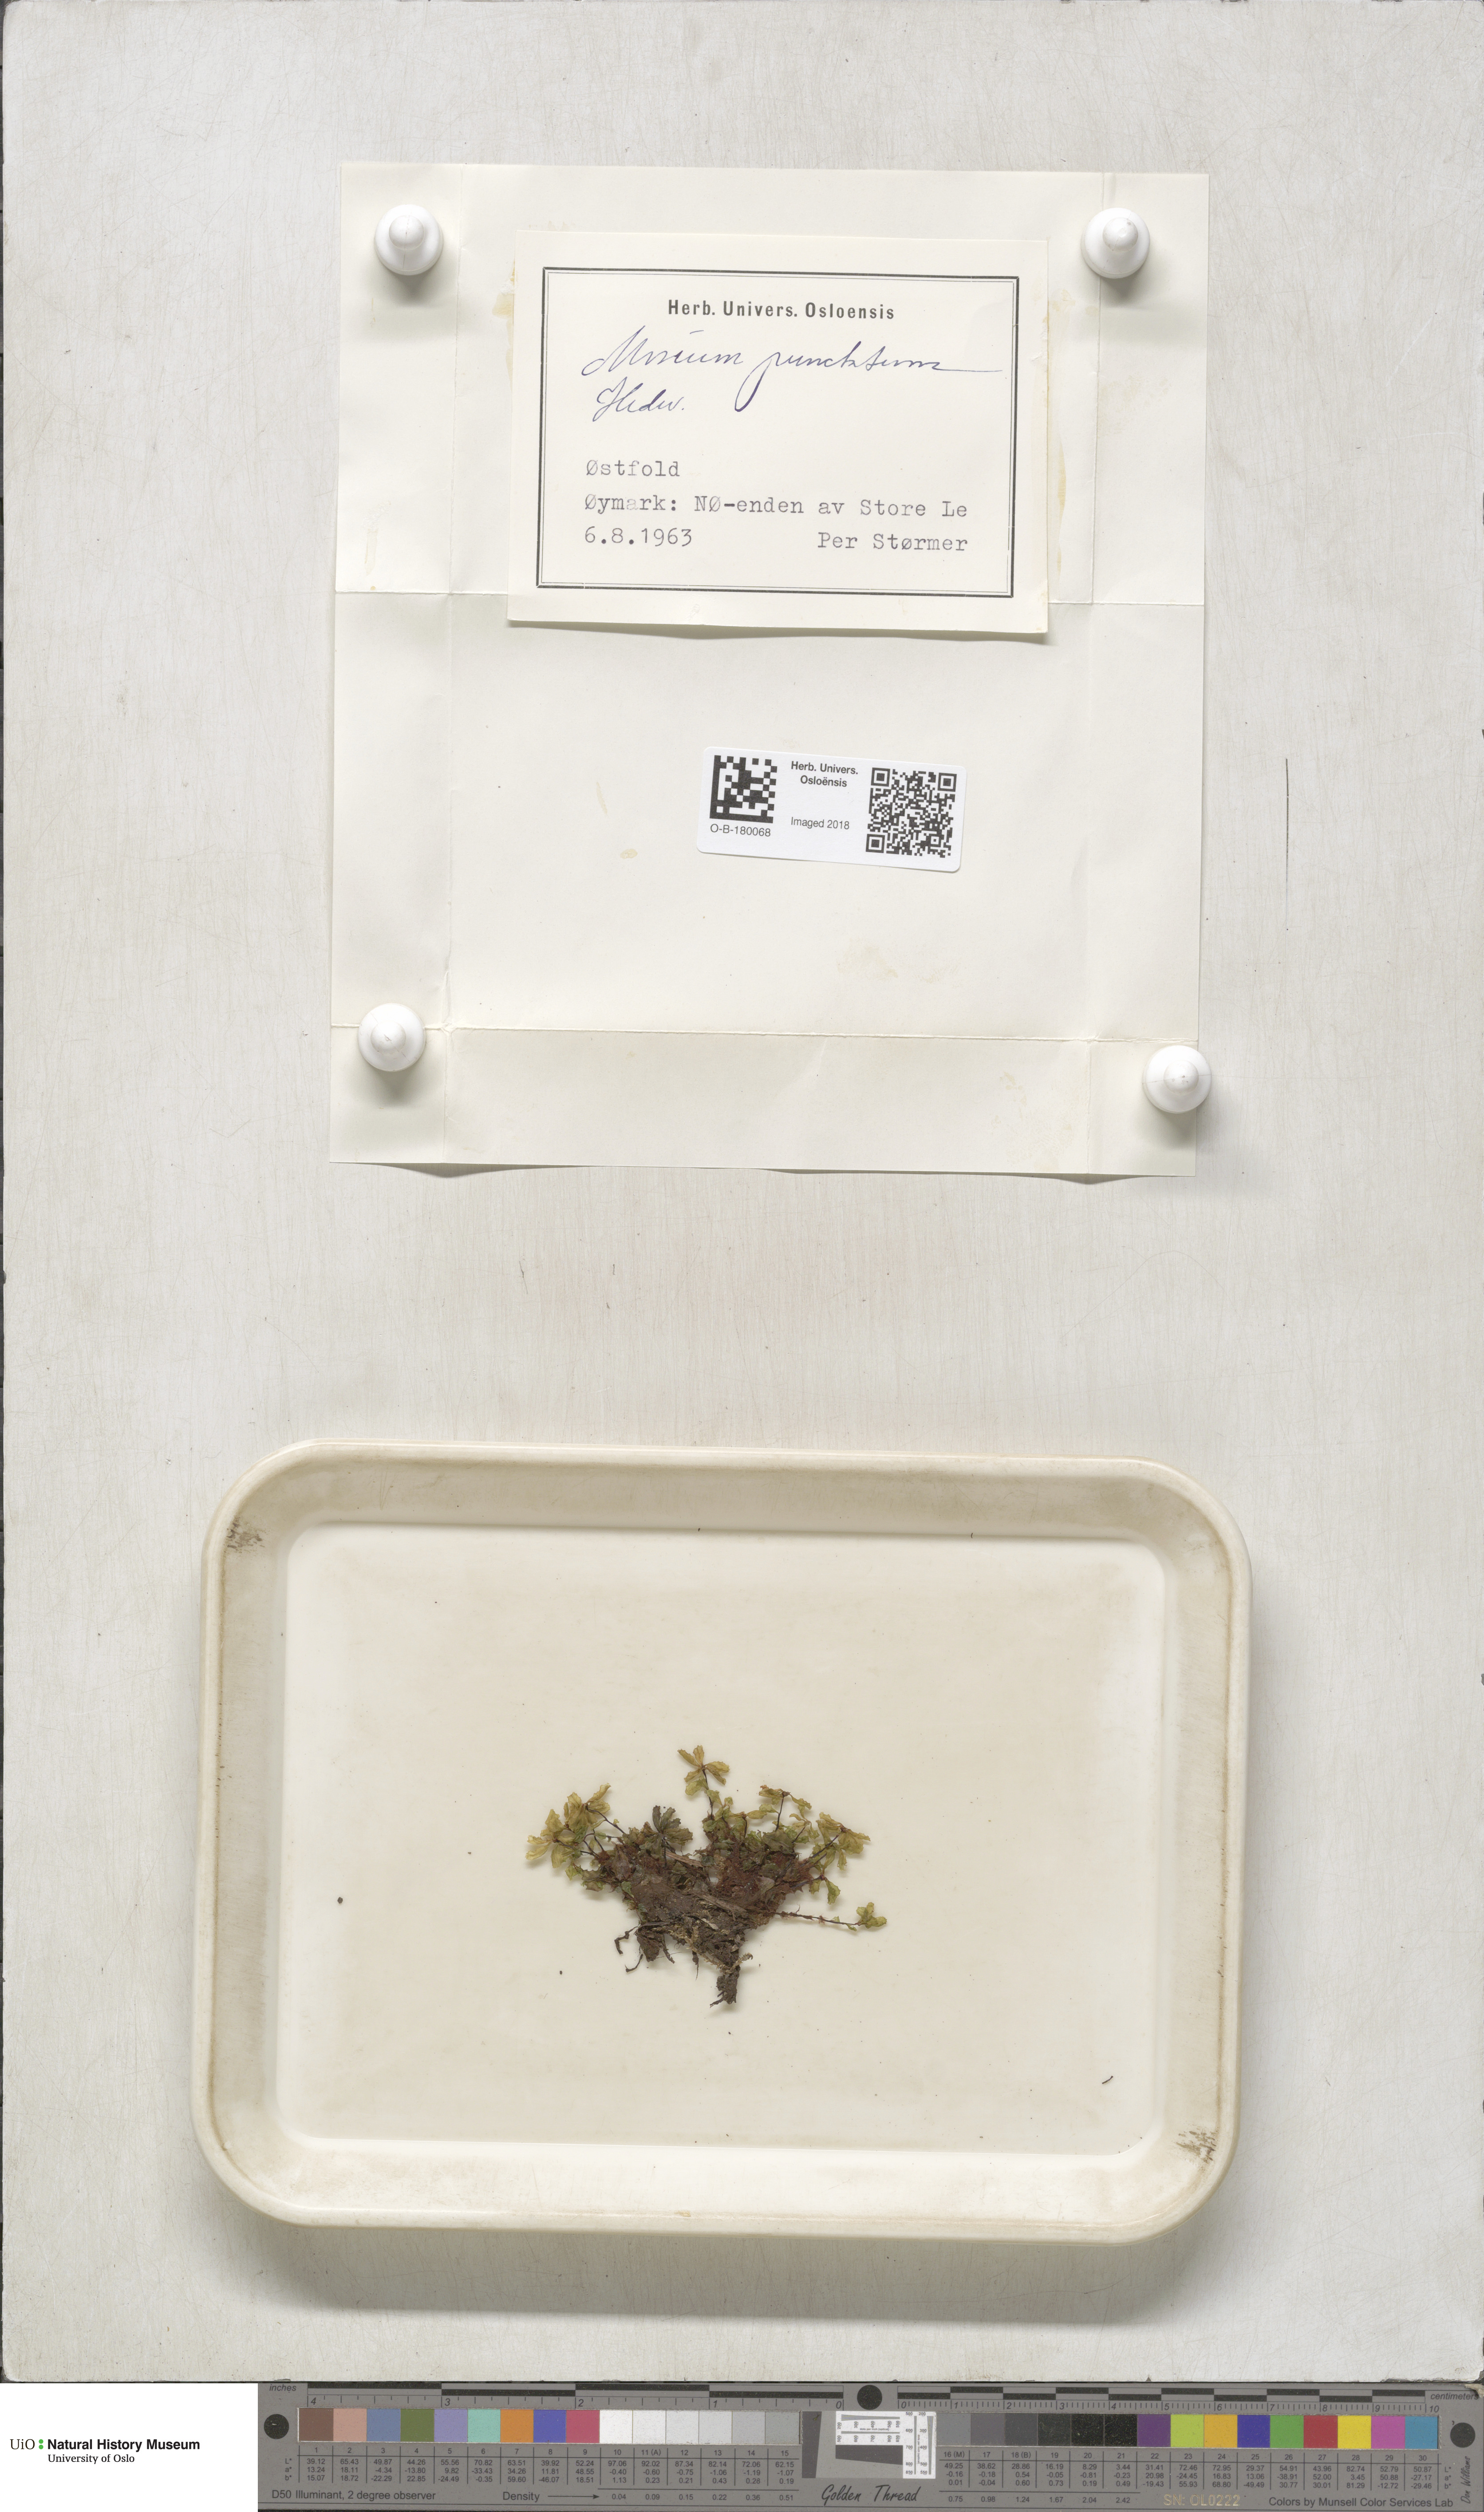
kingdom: Plantae
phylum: Bryophyta
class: Bryopsida
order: Bryales
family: Mniaceae
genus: Rhizomnium
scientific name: Rhizomnium punctatum
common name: Dotted leafy moss
